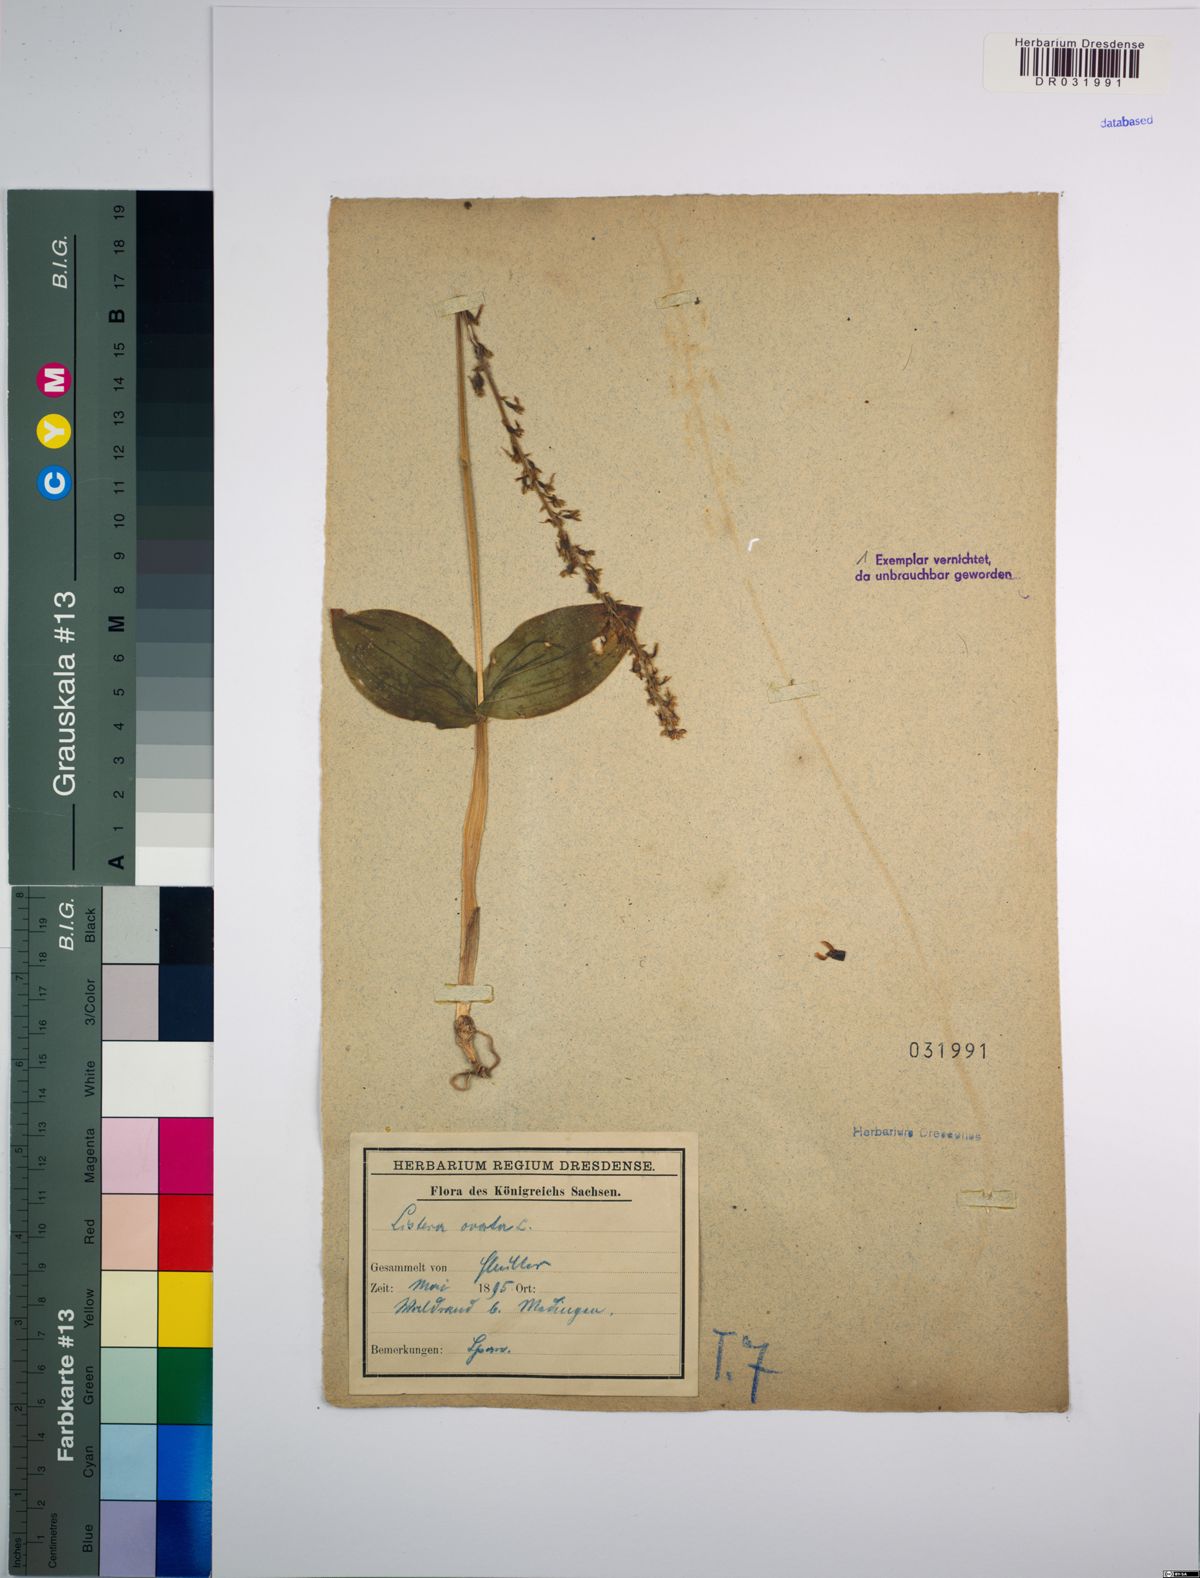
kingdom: Plantae
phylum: Tracheophyta
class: Liliopsida
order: Asparagales
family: Orchidaceae
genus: Neottia
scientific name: Neottia ovata
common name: Common twayblade
